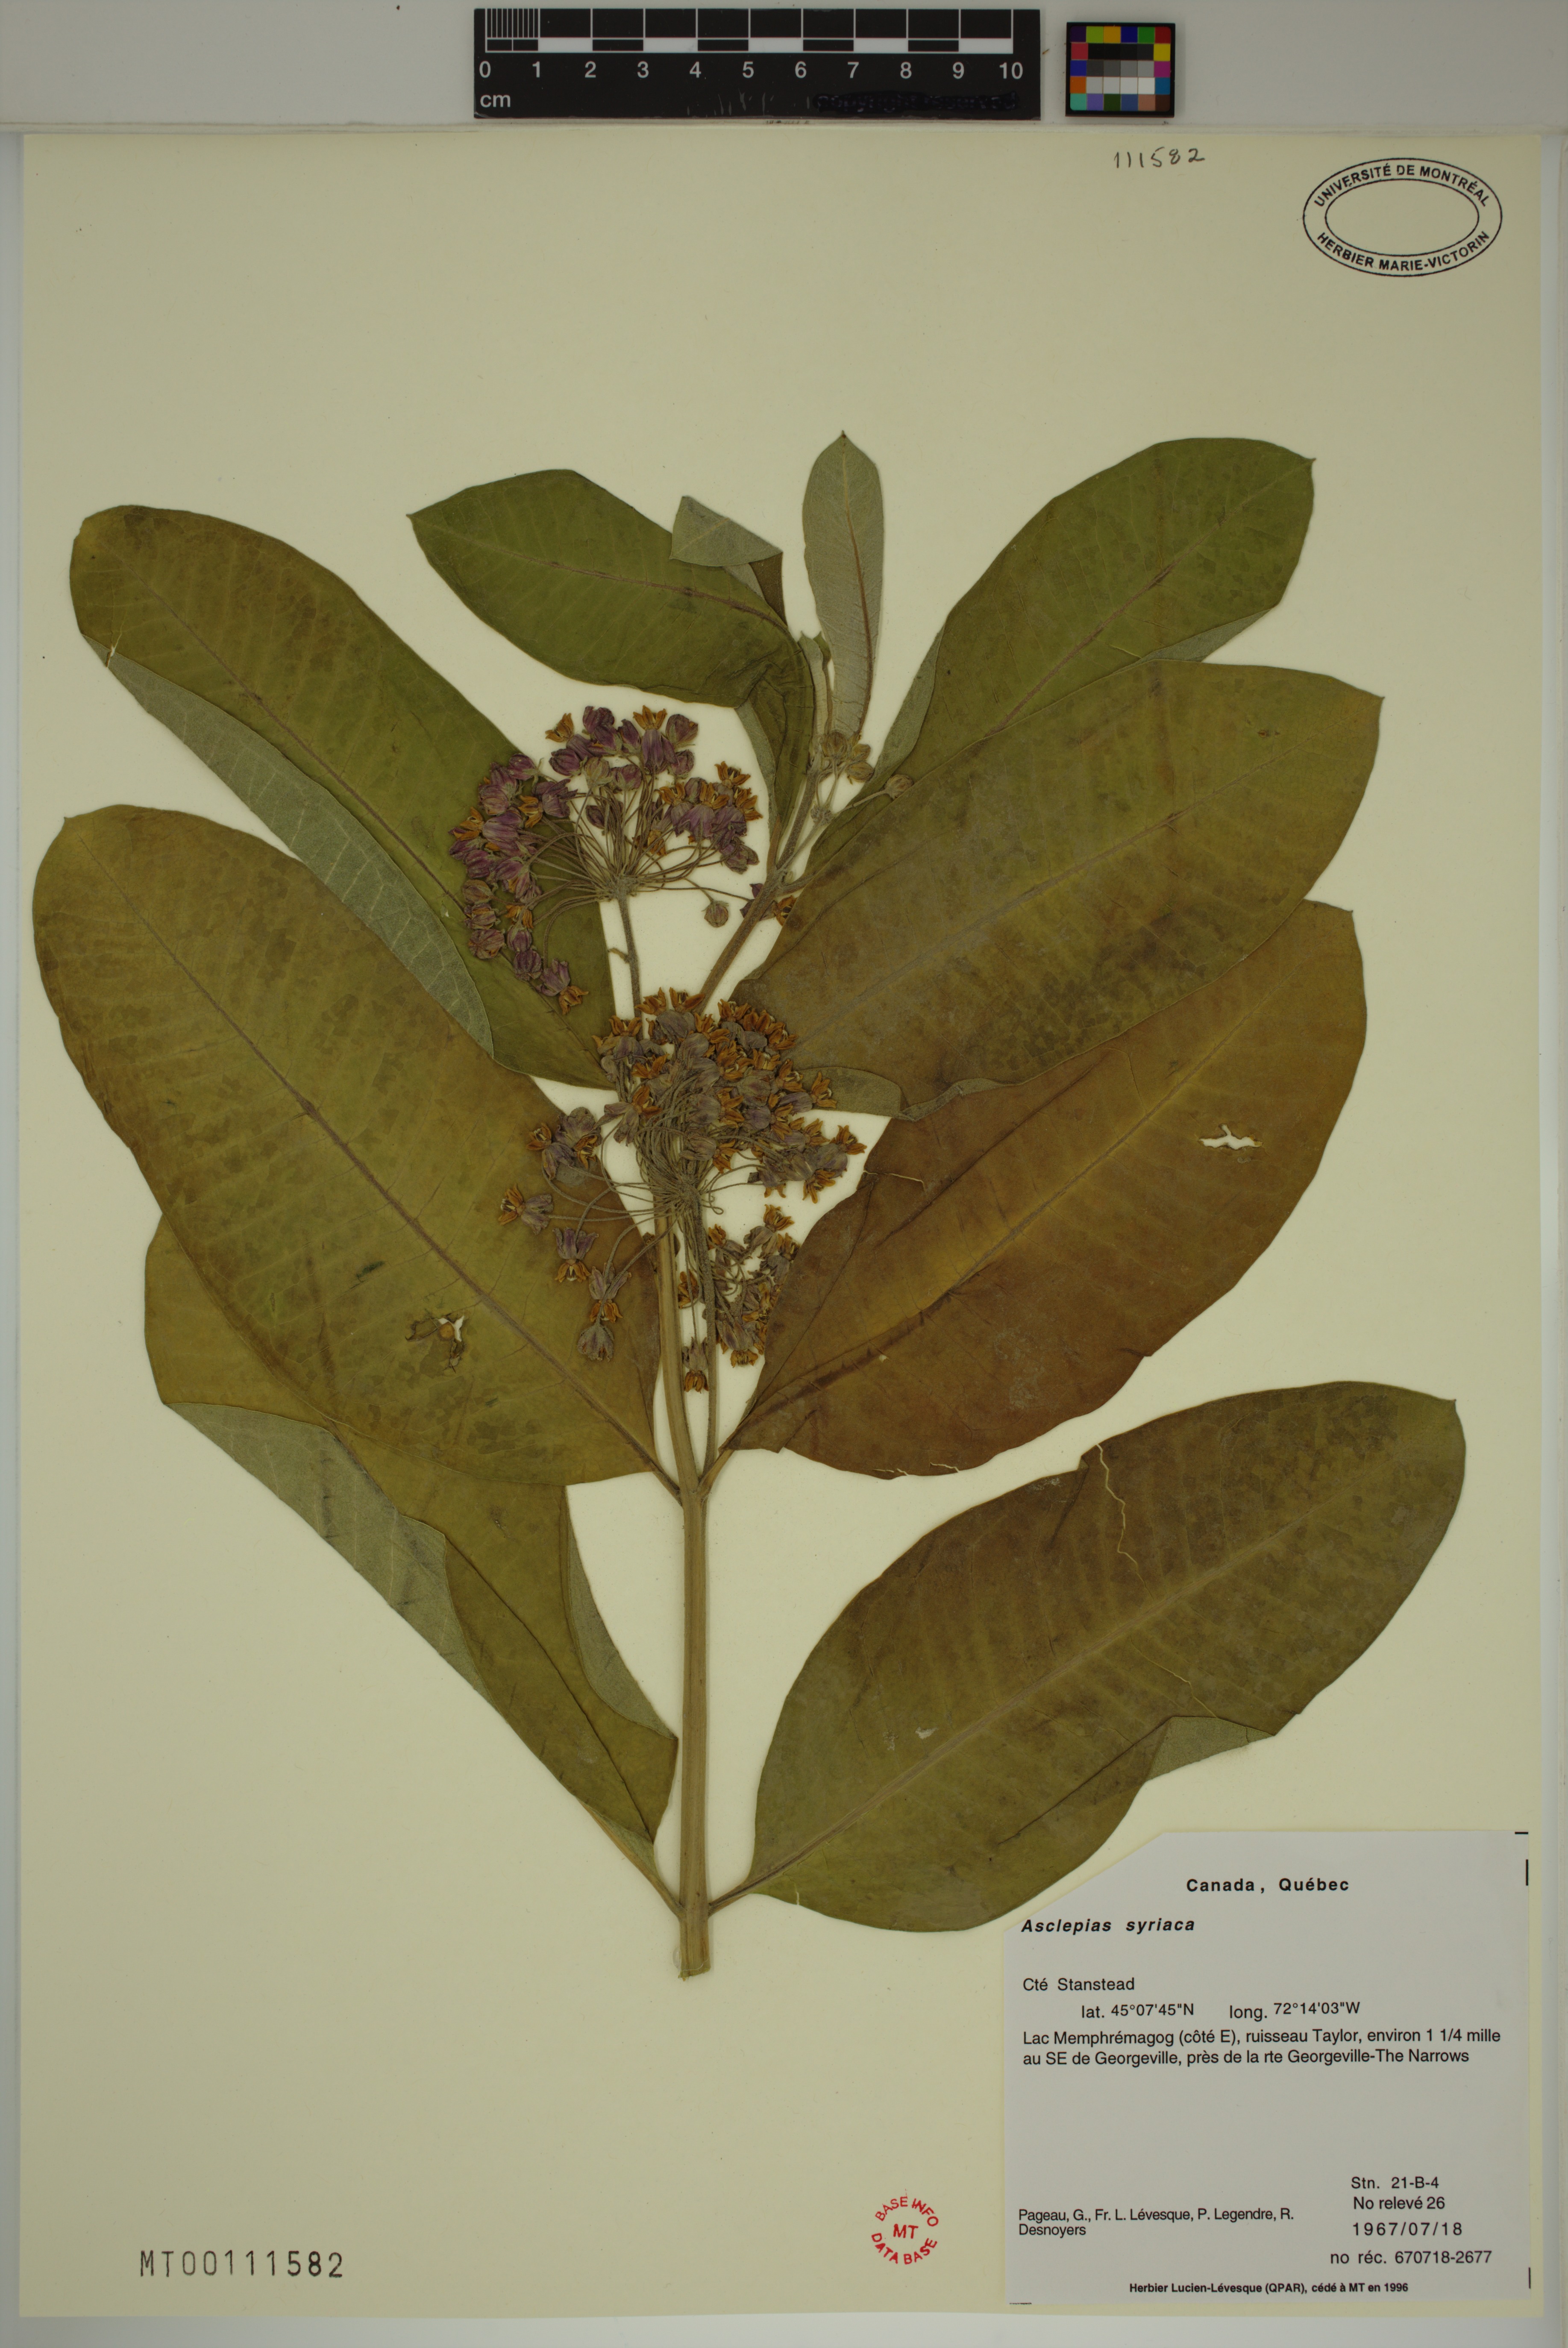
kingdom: Plantae
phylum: Tracheophyta
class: Magnoliopsida
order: Gentianales
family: Apocynaceae
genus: Asclepias
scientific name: Asclepias syriaca
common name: Common milkweed
